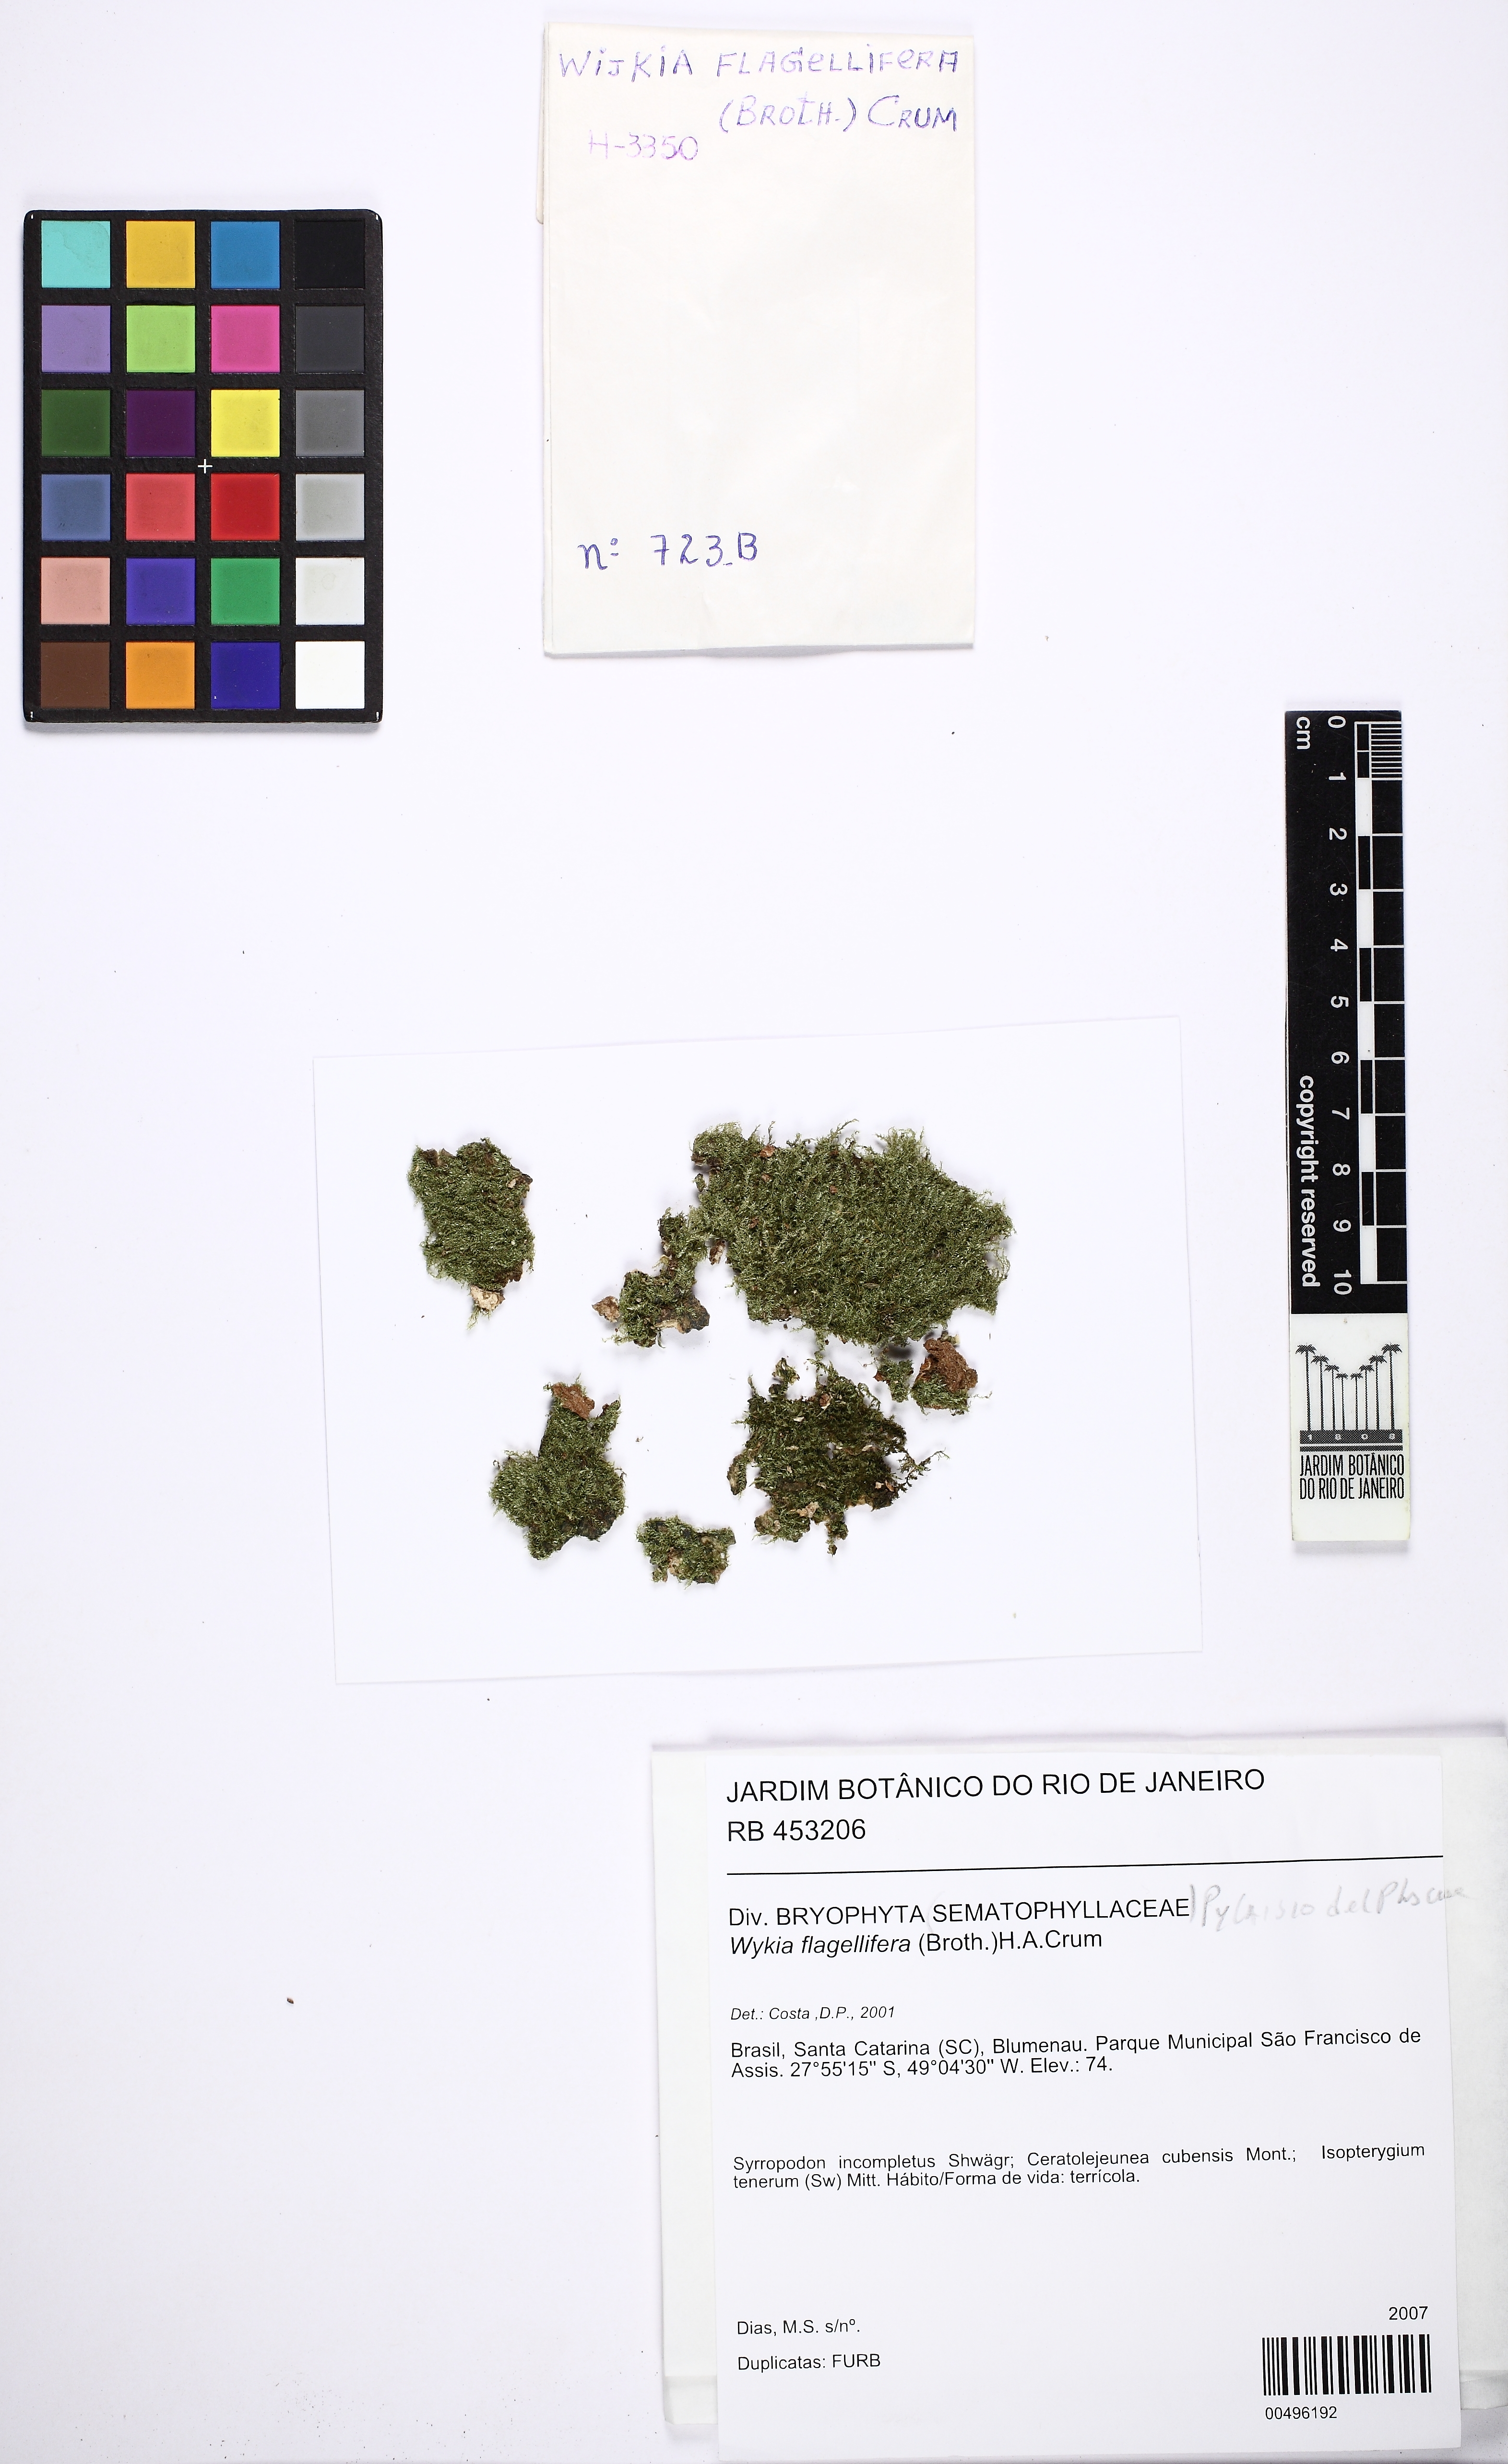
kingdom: Plantae
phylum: Bryophyta
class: Bryopsida
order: Hypnales
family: Pylaisiadelphaceae
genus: Wijkia
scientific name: Wijkia flagellifera
